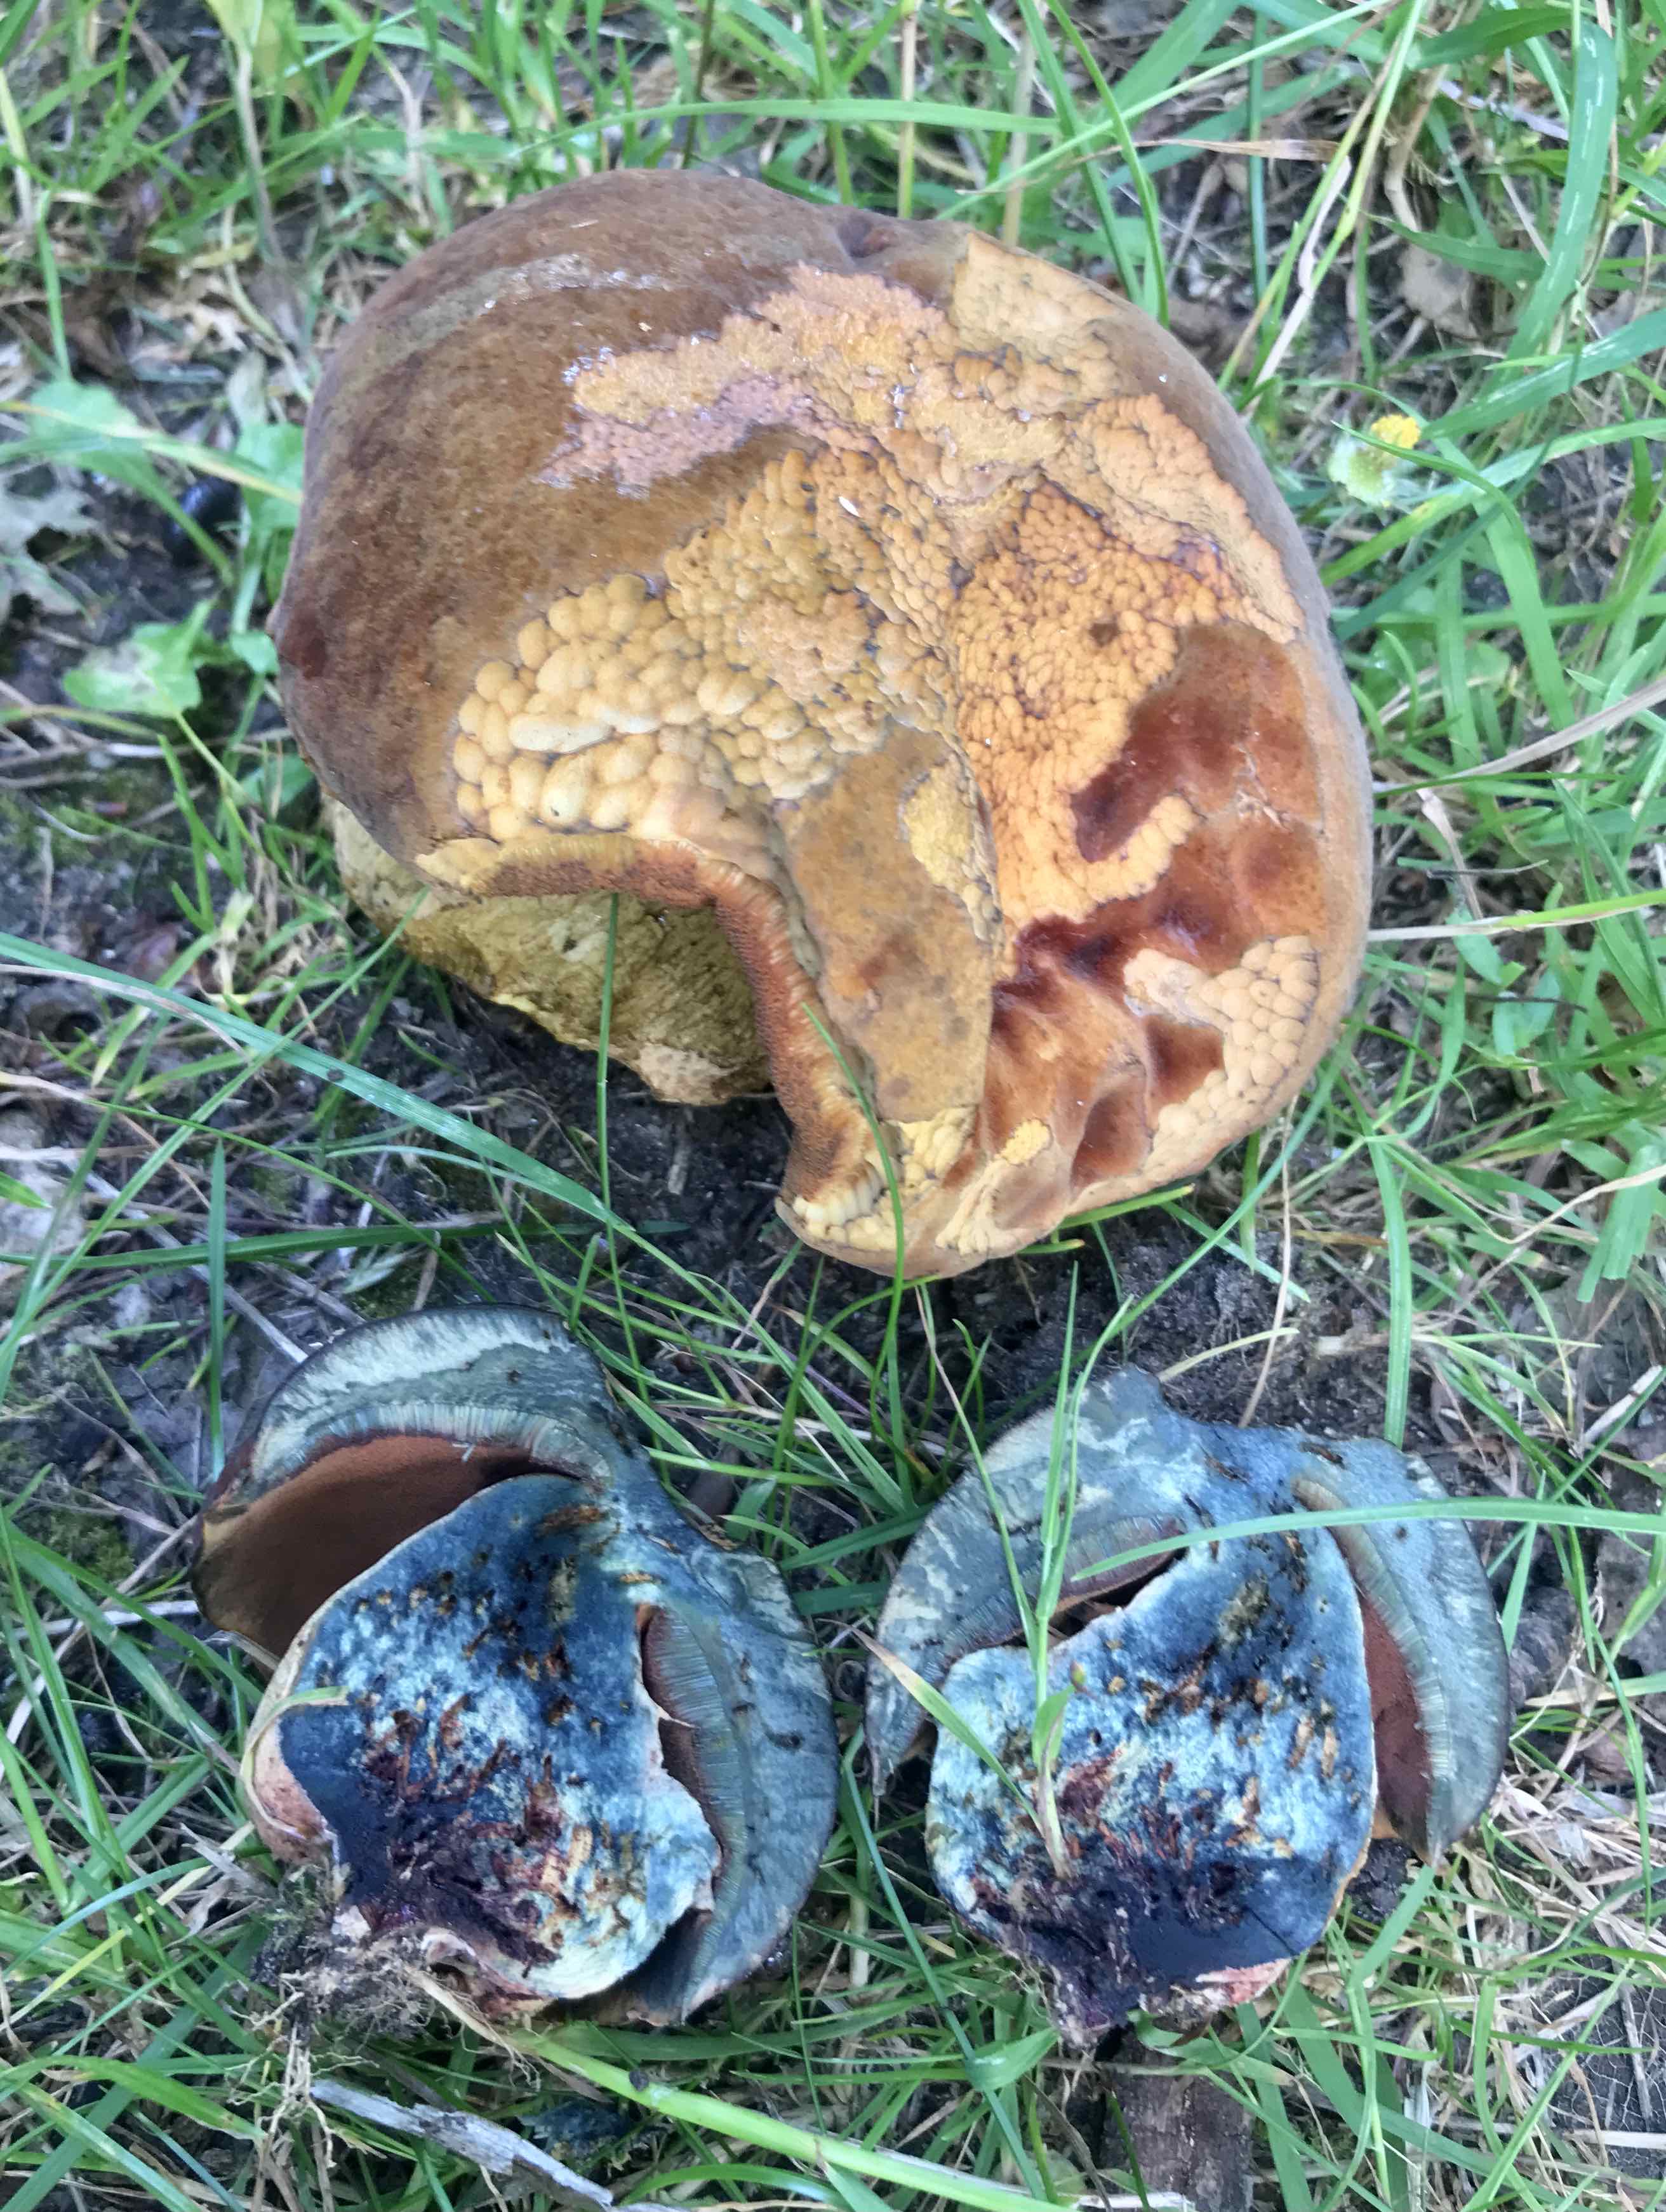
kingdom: Fungi
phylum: Basidiomycota
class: Agaricomycetes
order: Boletales
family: Boletaceae
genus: Suillellus
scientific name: Suillellus queletii
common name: glatstokket indigorørhat
